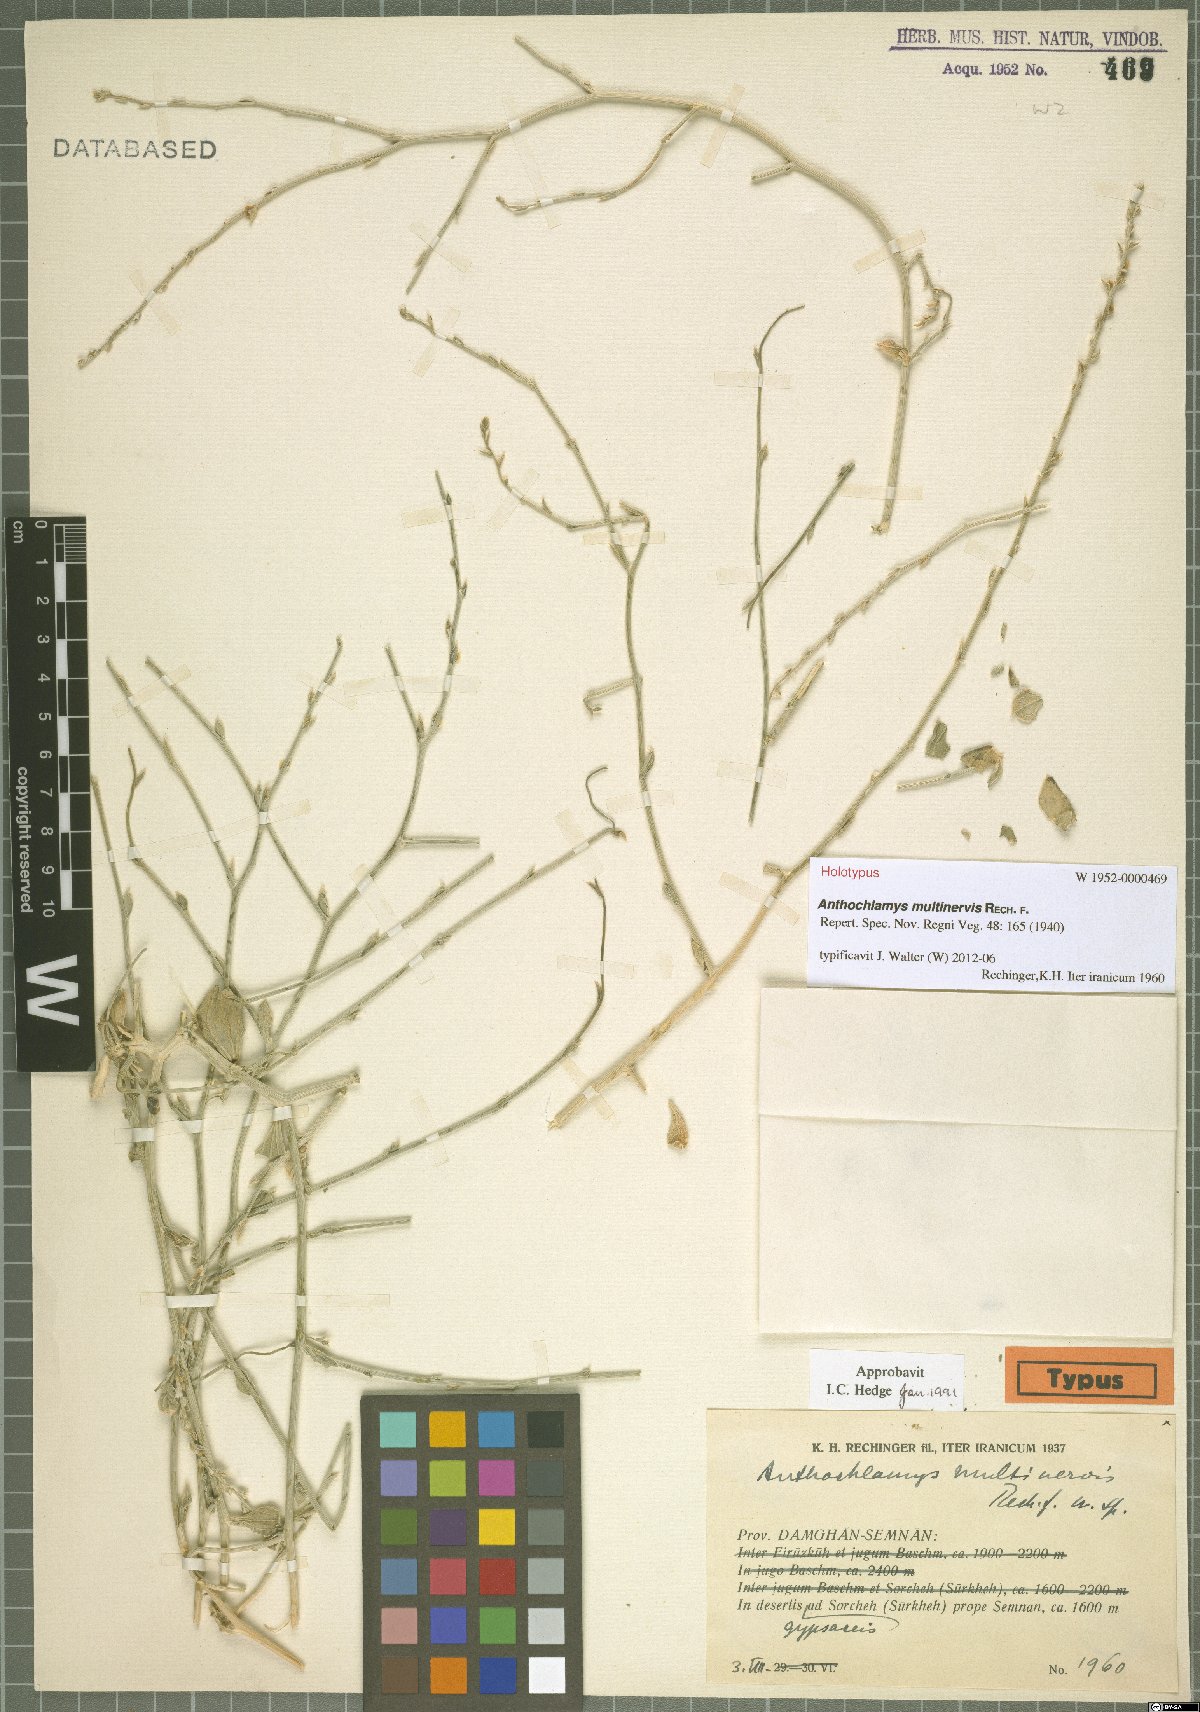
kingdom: Plantae
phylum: Tracheophyta
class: Magnoliopsida
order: Caryophyllales
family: Amaranthaceae
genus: Anthochlamys
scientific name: Anthochlamys multinervis
